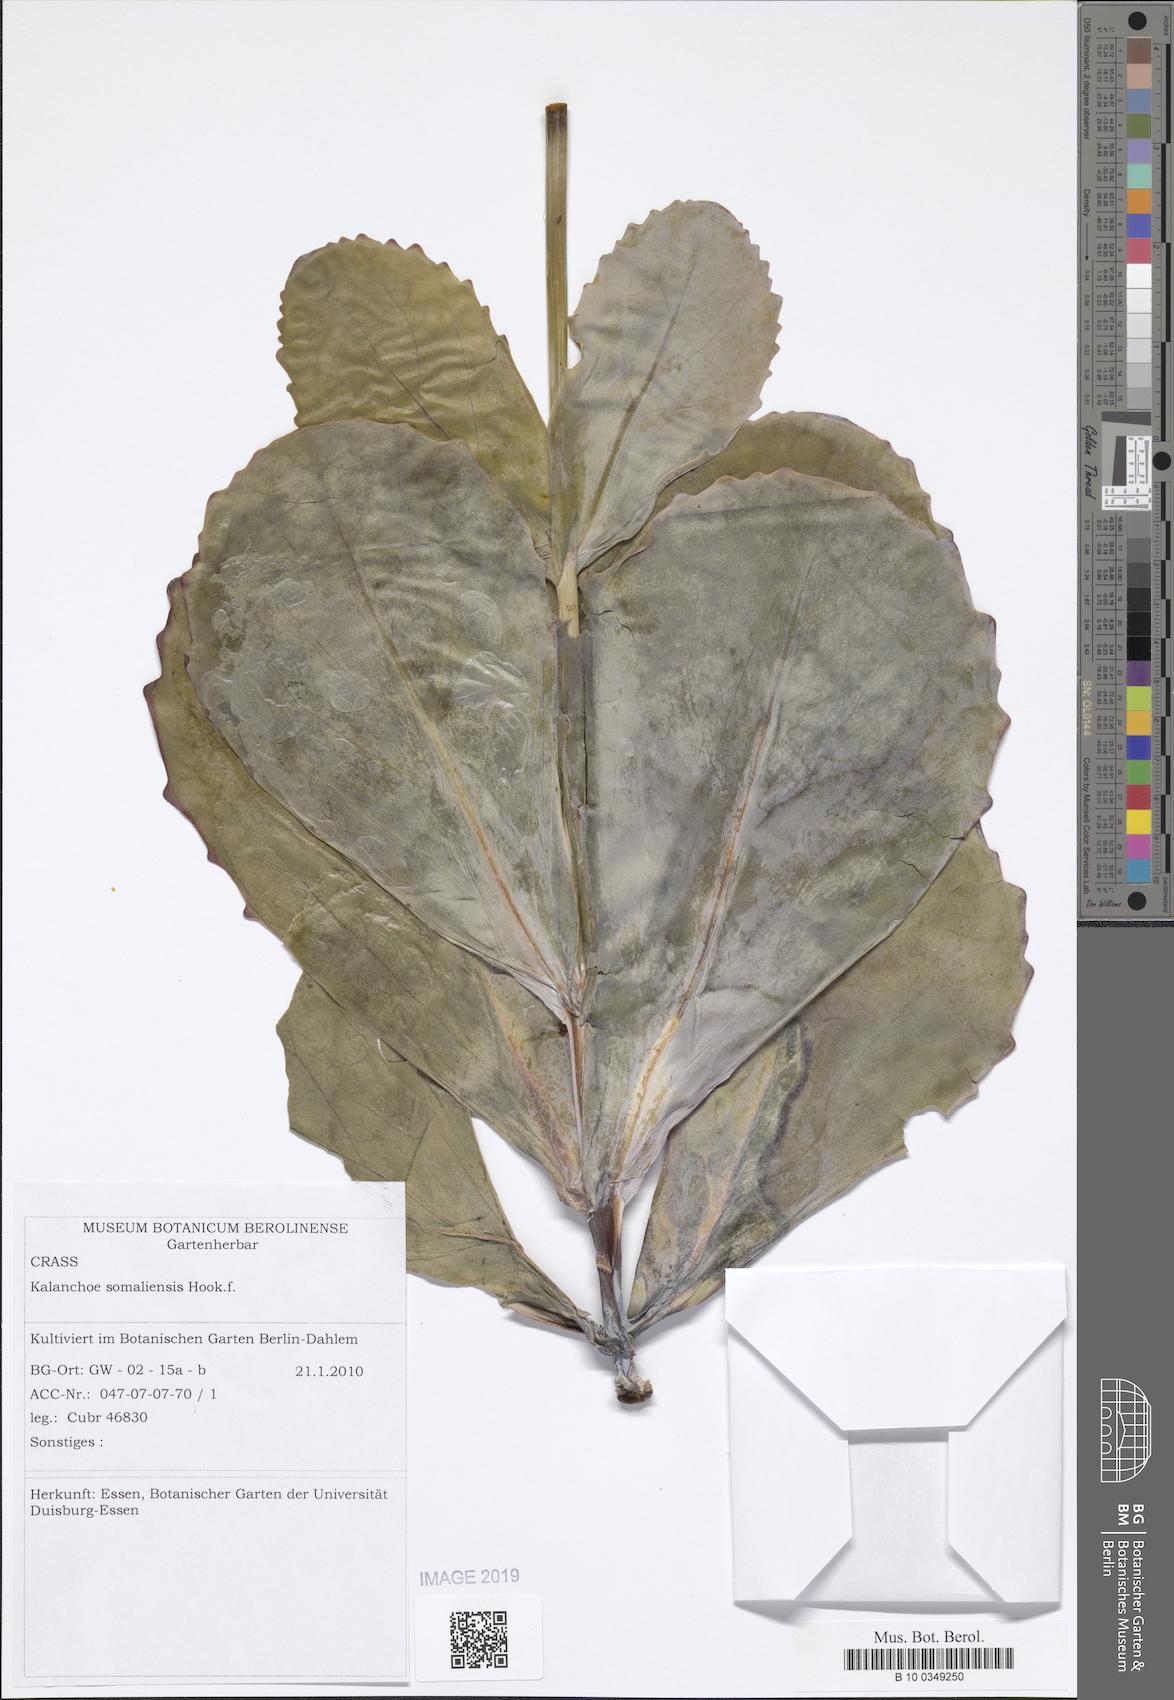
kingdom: Plantae
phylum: Tracheophyta
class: Magnoliopsida
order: Saxifragales
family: Crassulaceae
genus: Kalanchoe
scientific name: Kalanchoe marmorata
